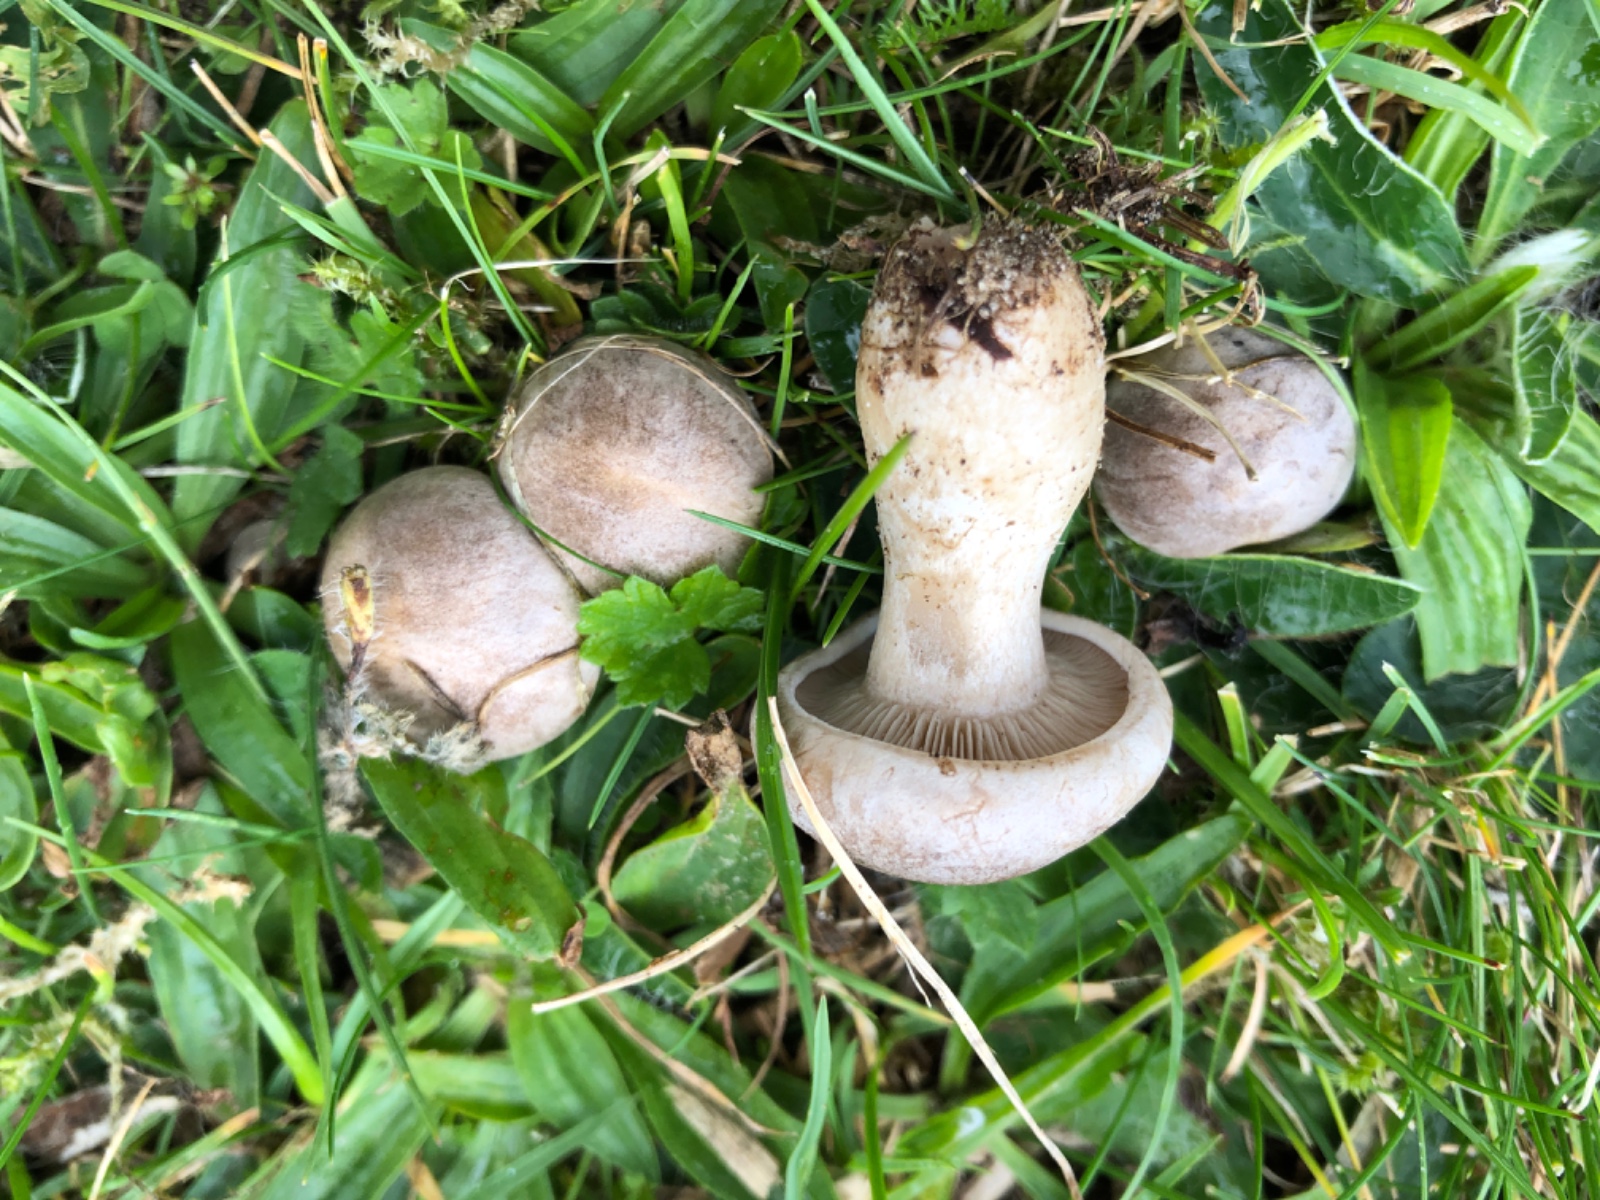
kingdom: Fungi
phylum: Basidiomycota
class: Agaricomycetes
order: Agaricales
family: Tricholomataceae
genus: Lulesia
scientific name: Lulesia
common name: sortnende troldhat
